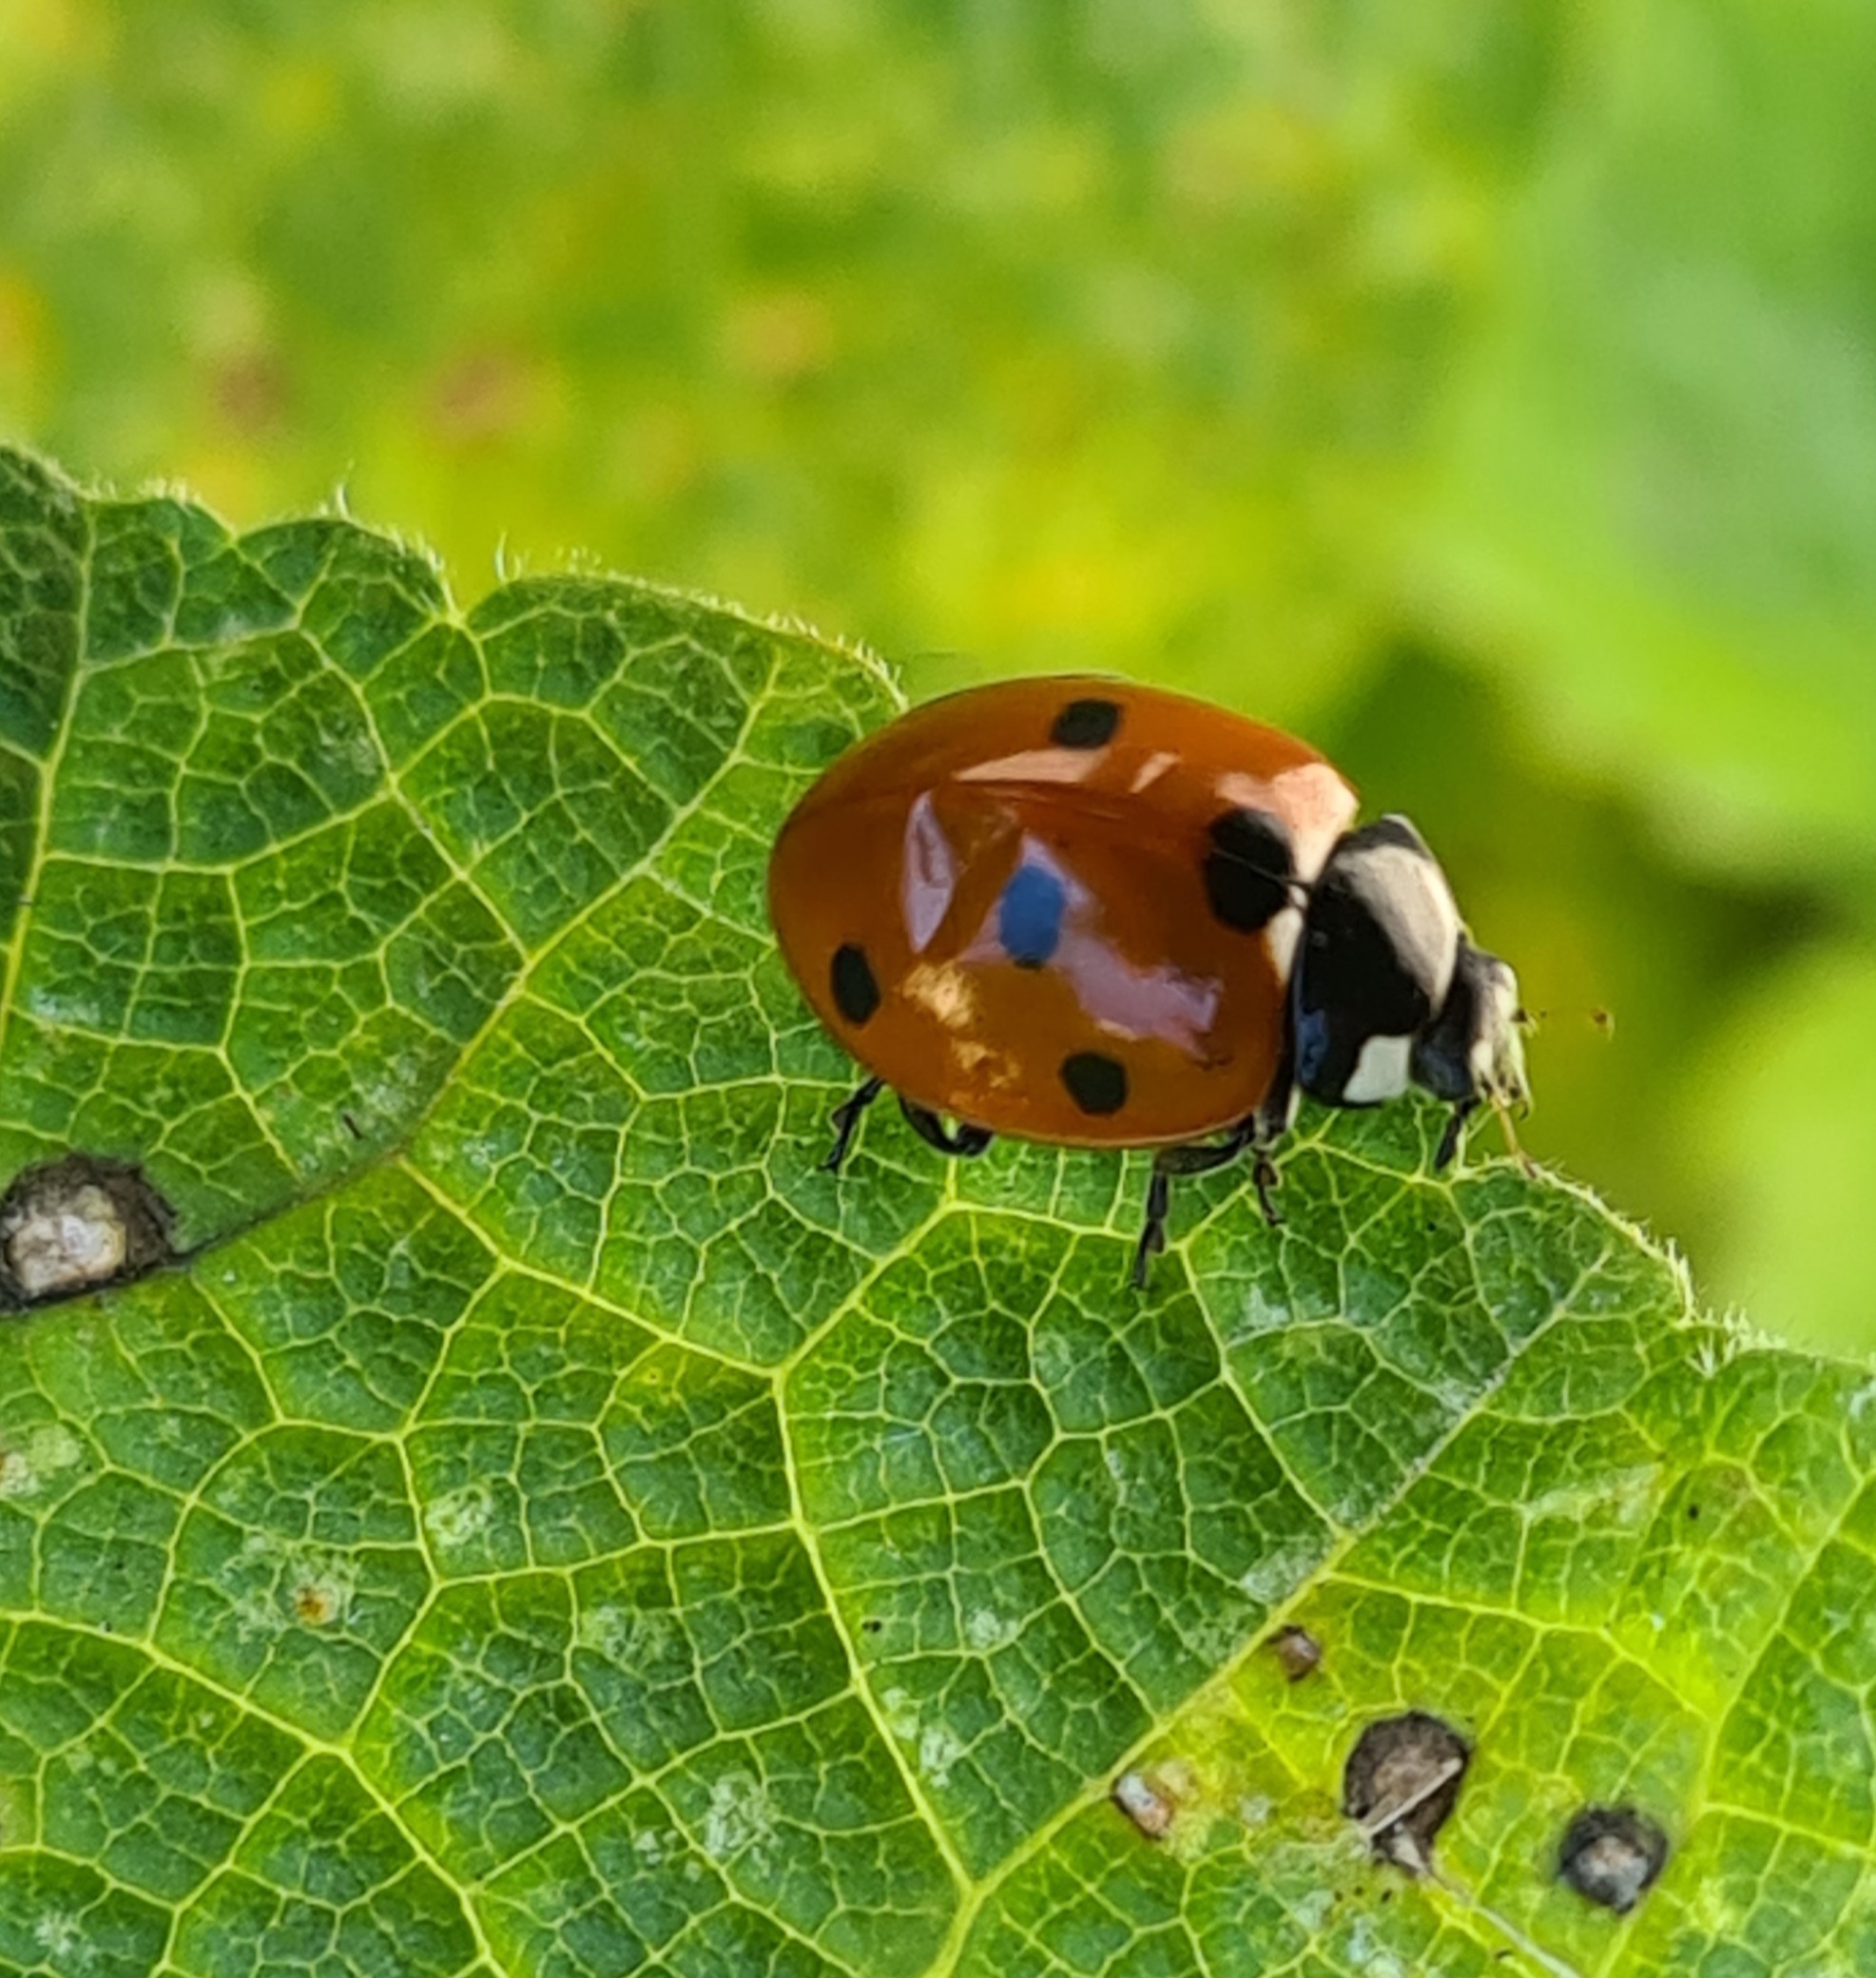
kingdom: Animalia
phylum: Arthropoda
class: Insecta
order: Coleoptera
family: Coccinellidae
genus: Coccinella
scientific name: Coccinella septempunctata
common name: Syvplettet mariehøne
